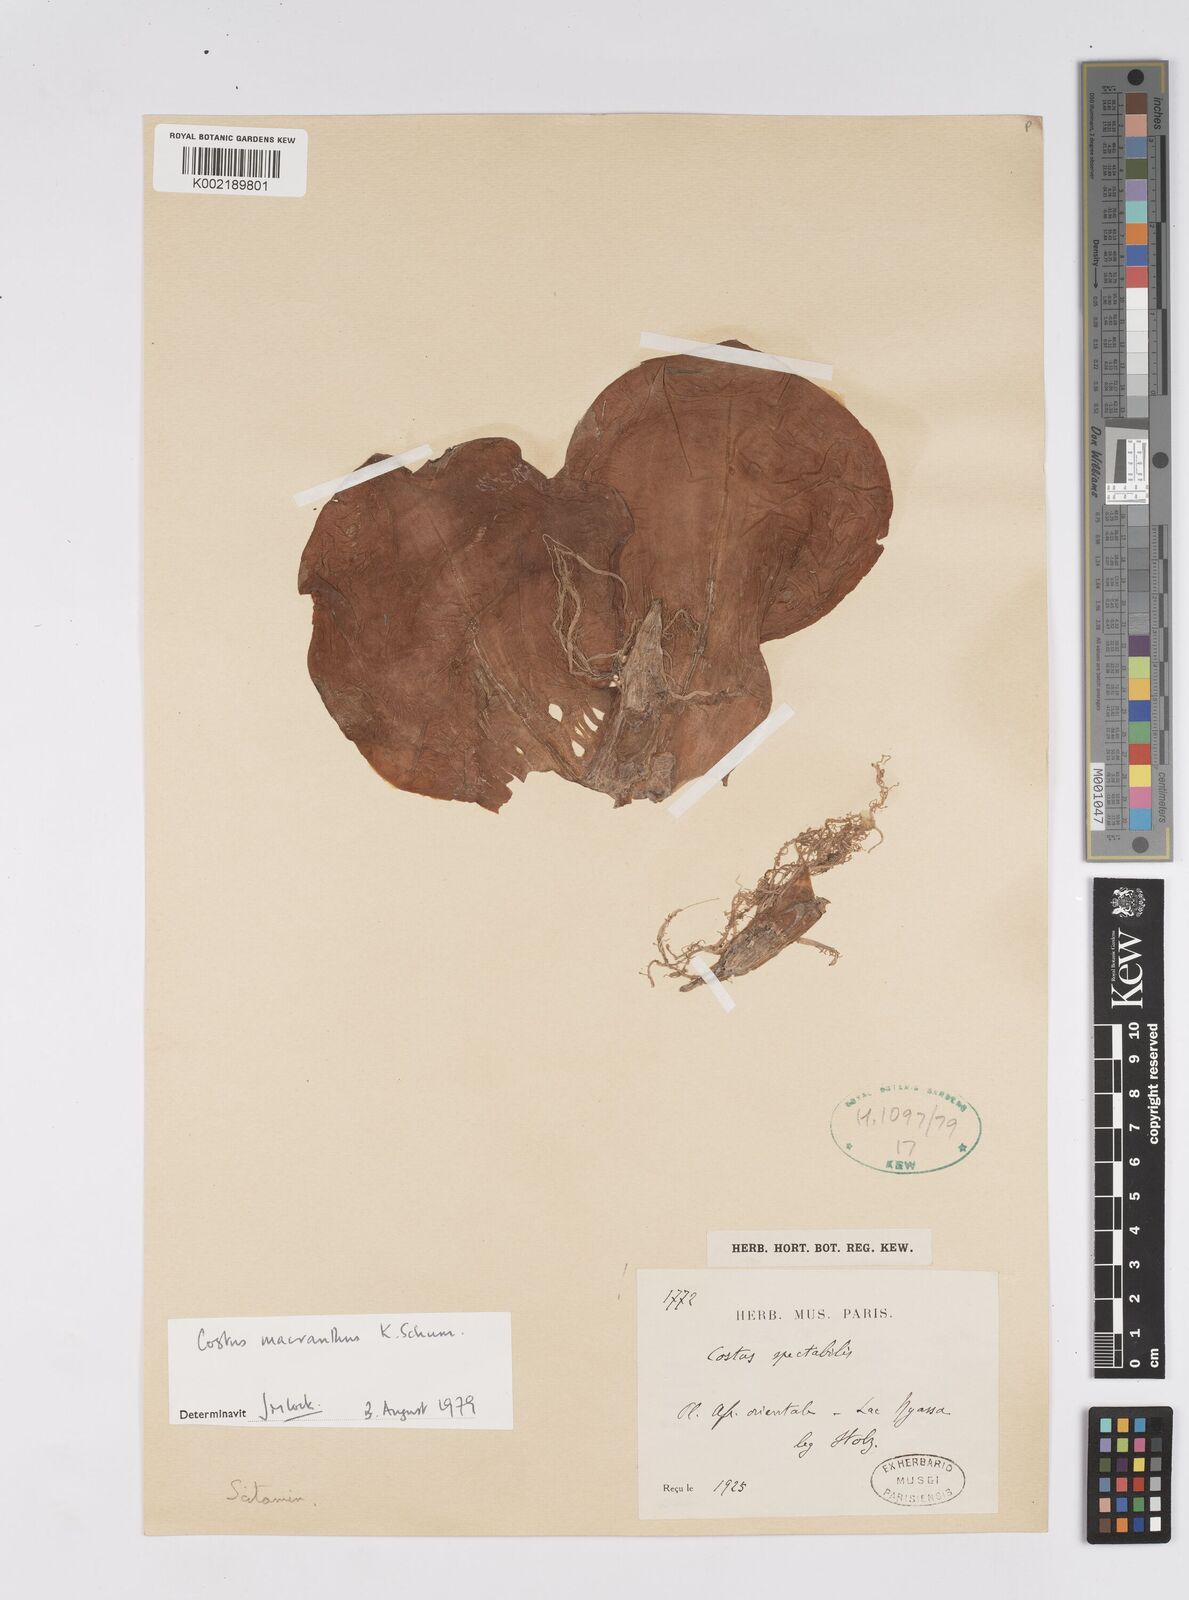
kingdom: Plantae
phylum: Tracheophyta
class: Liliopsida
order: Zingiberales
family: Costaceae
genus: Costus
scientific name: Costus macranthus
